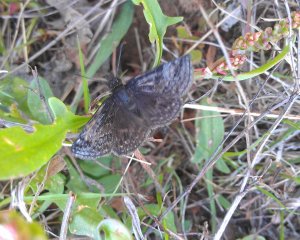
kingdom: Animalia
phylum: Arthropoda
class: Insecta
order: Lepidoptera
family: Hesperiidae
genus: Erynnis
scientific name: Erynnis icelus
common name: Dreamy Duskywing
